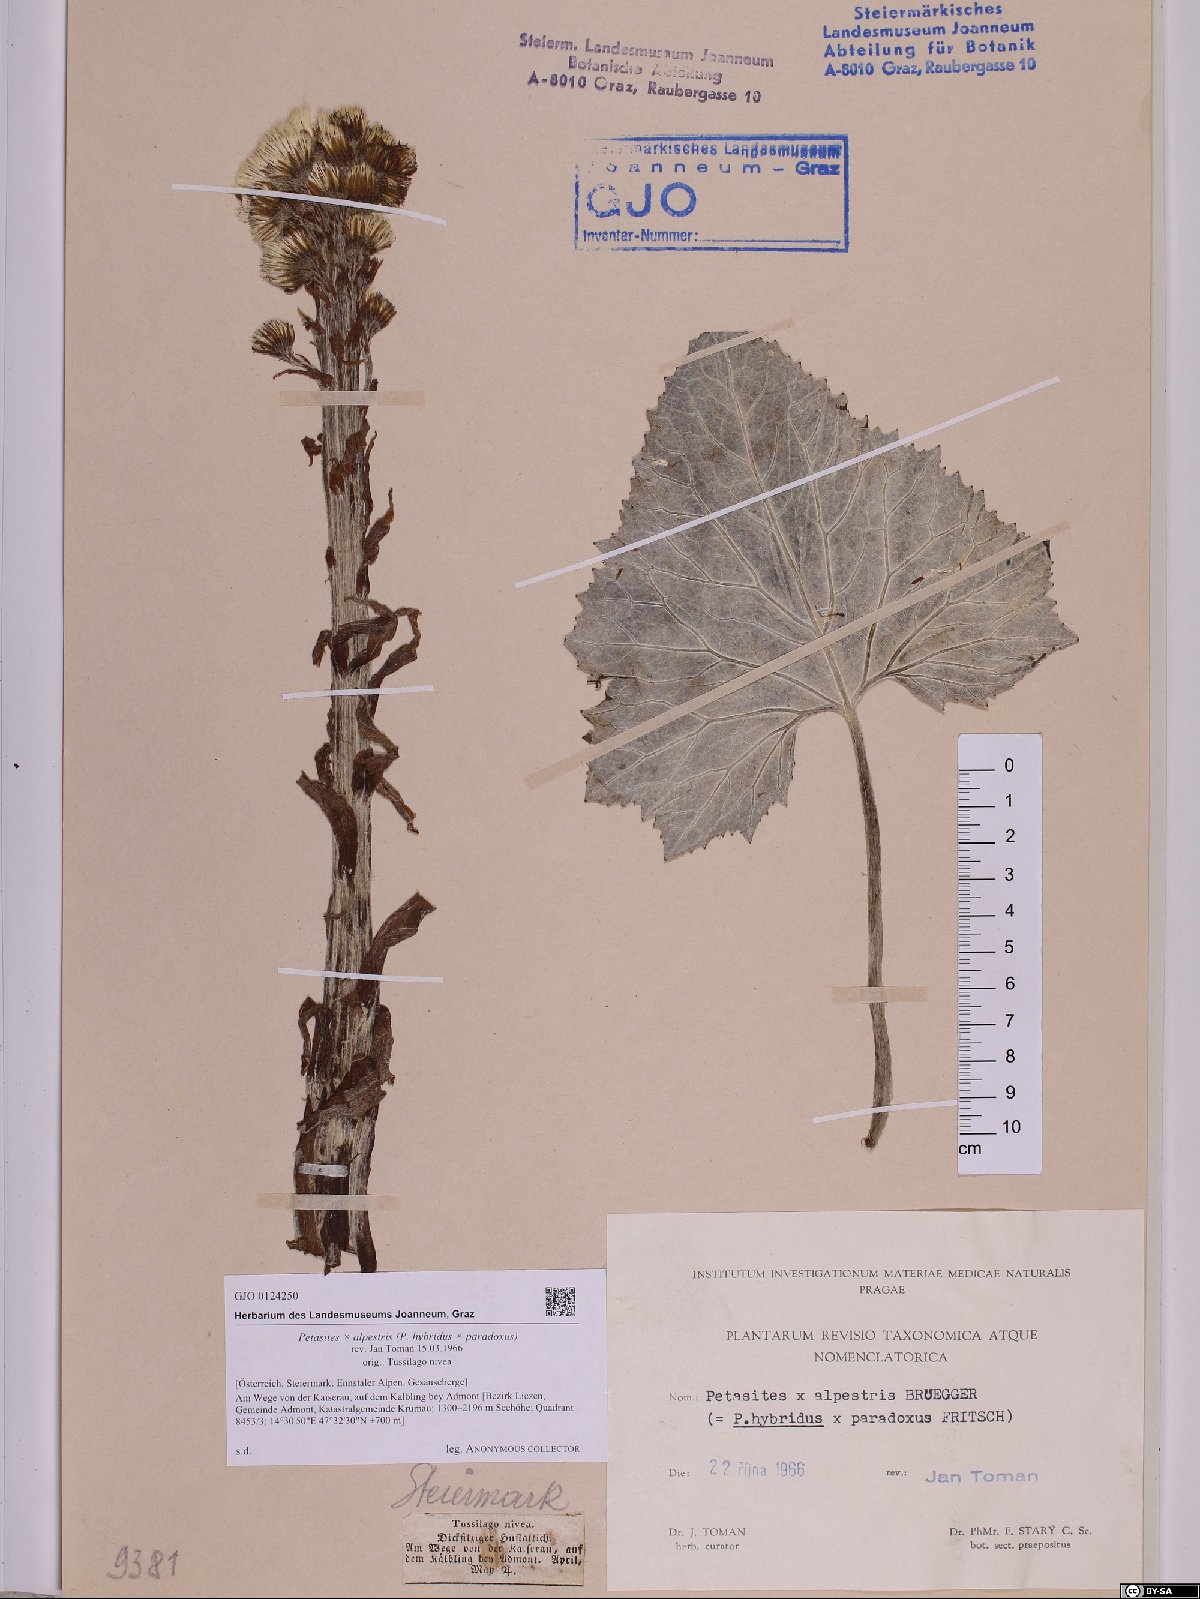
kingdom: Plantae
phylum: Tracheophyta
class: Magnoliopsida
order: Asterales
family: Asteraceae
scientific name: Asteraceae
